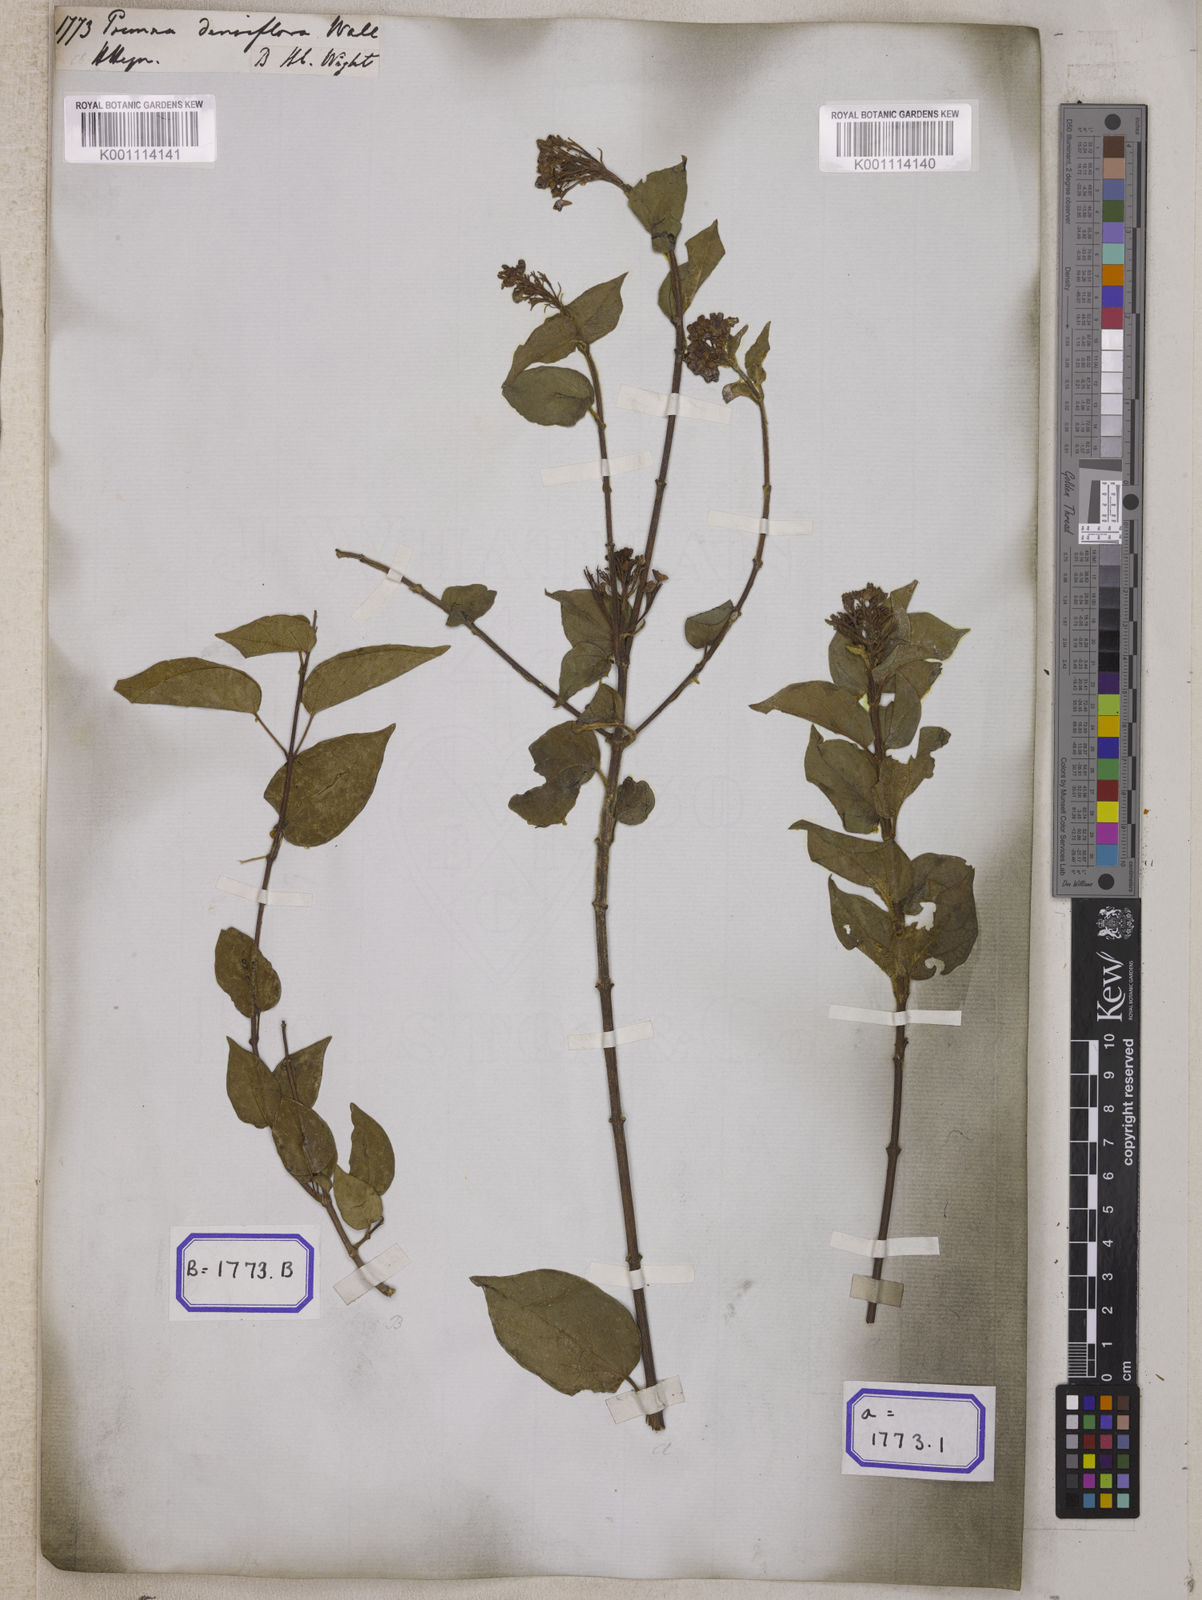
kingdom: Plantae
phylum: Tracheophyta
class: Magnoliopsida
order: Lamiales
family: Lamiaceae
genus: Premna
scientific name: Premna
